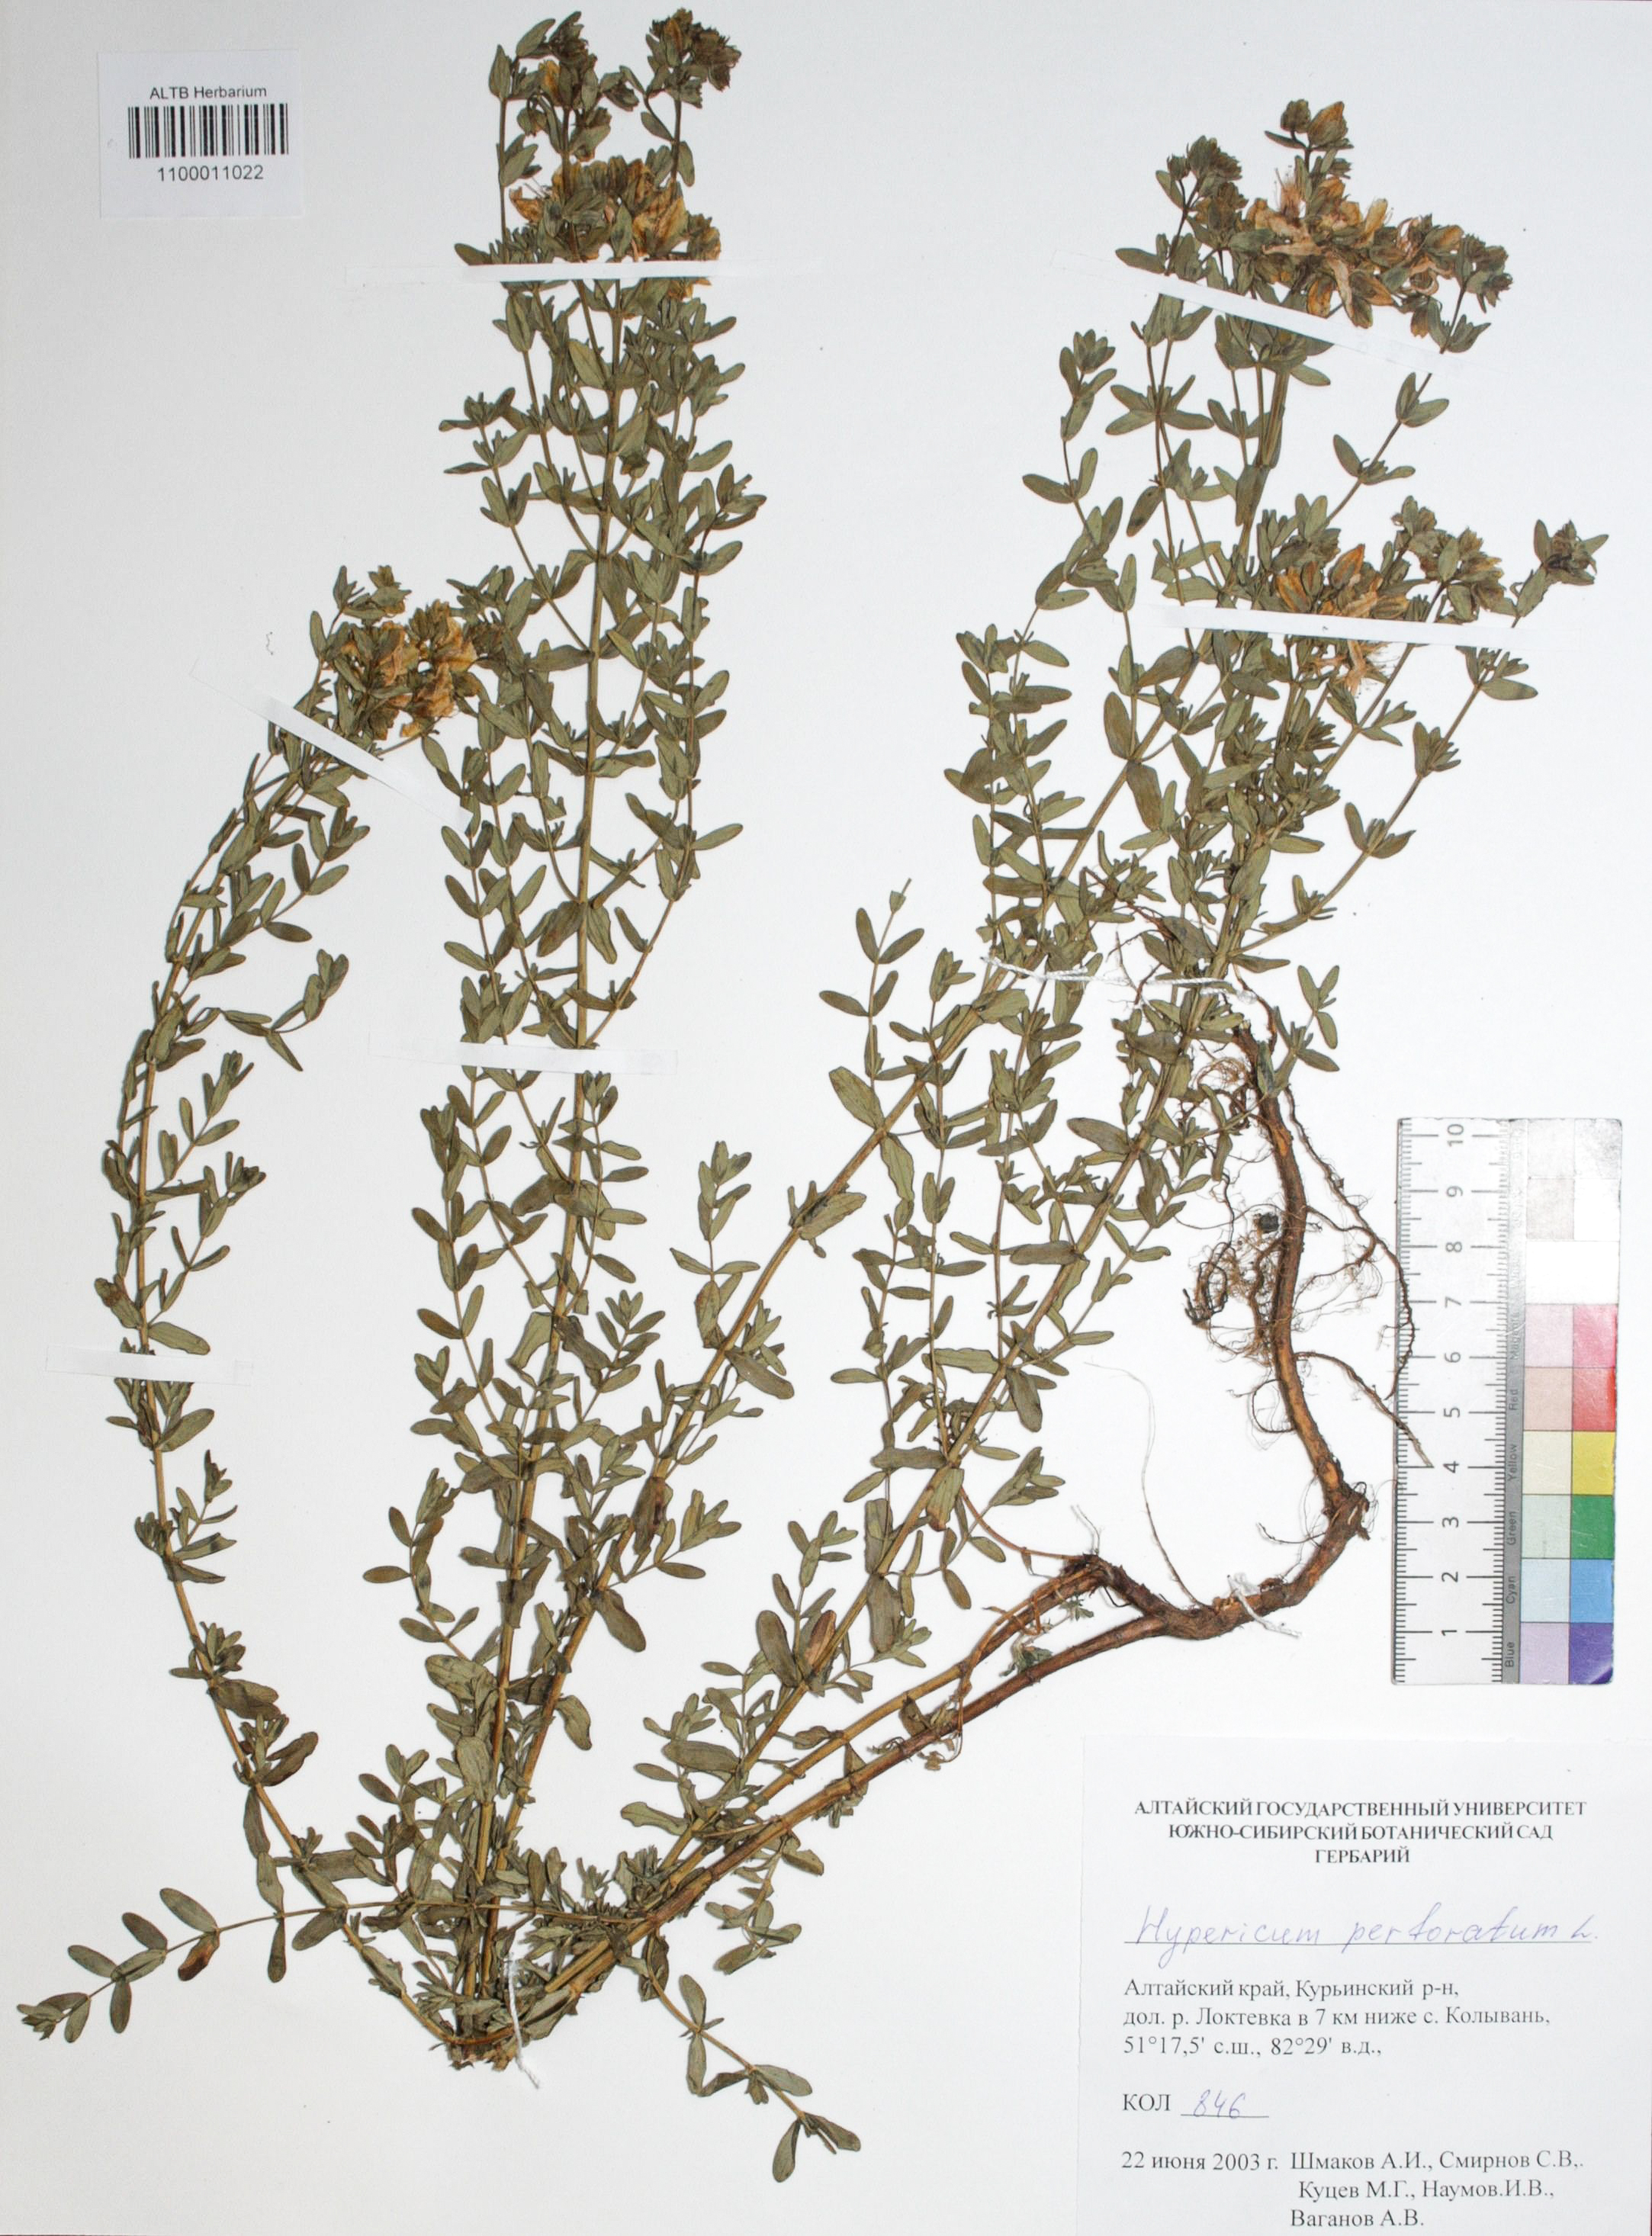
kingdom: Plantae
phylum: Tracheophyta
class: Magnoliopsida
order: Malpighiales
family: Hypericaceae
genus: Hypericum
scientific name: Hypericum perforatum
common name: Common st. johnswort
